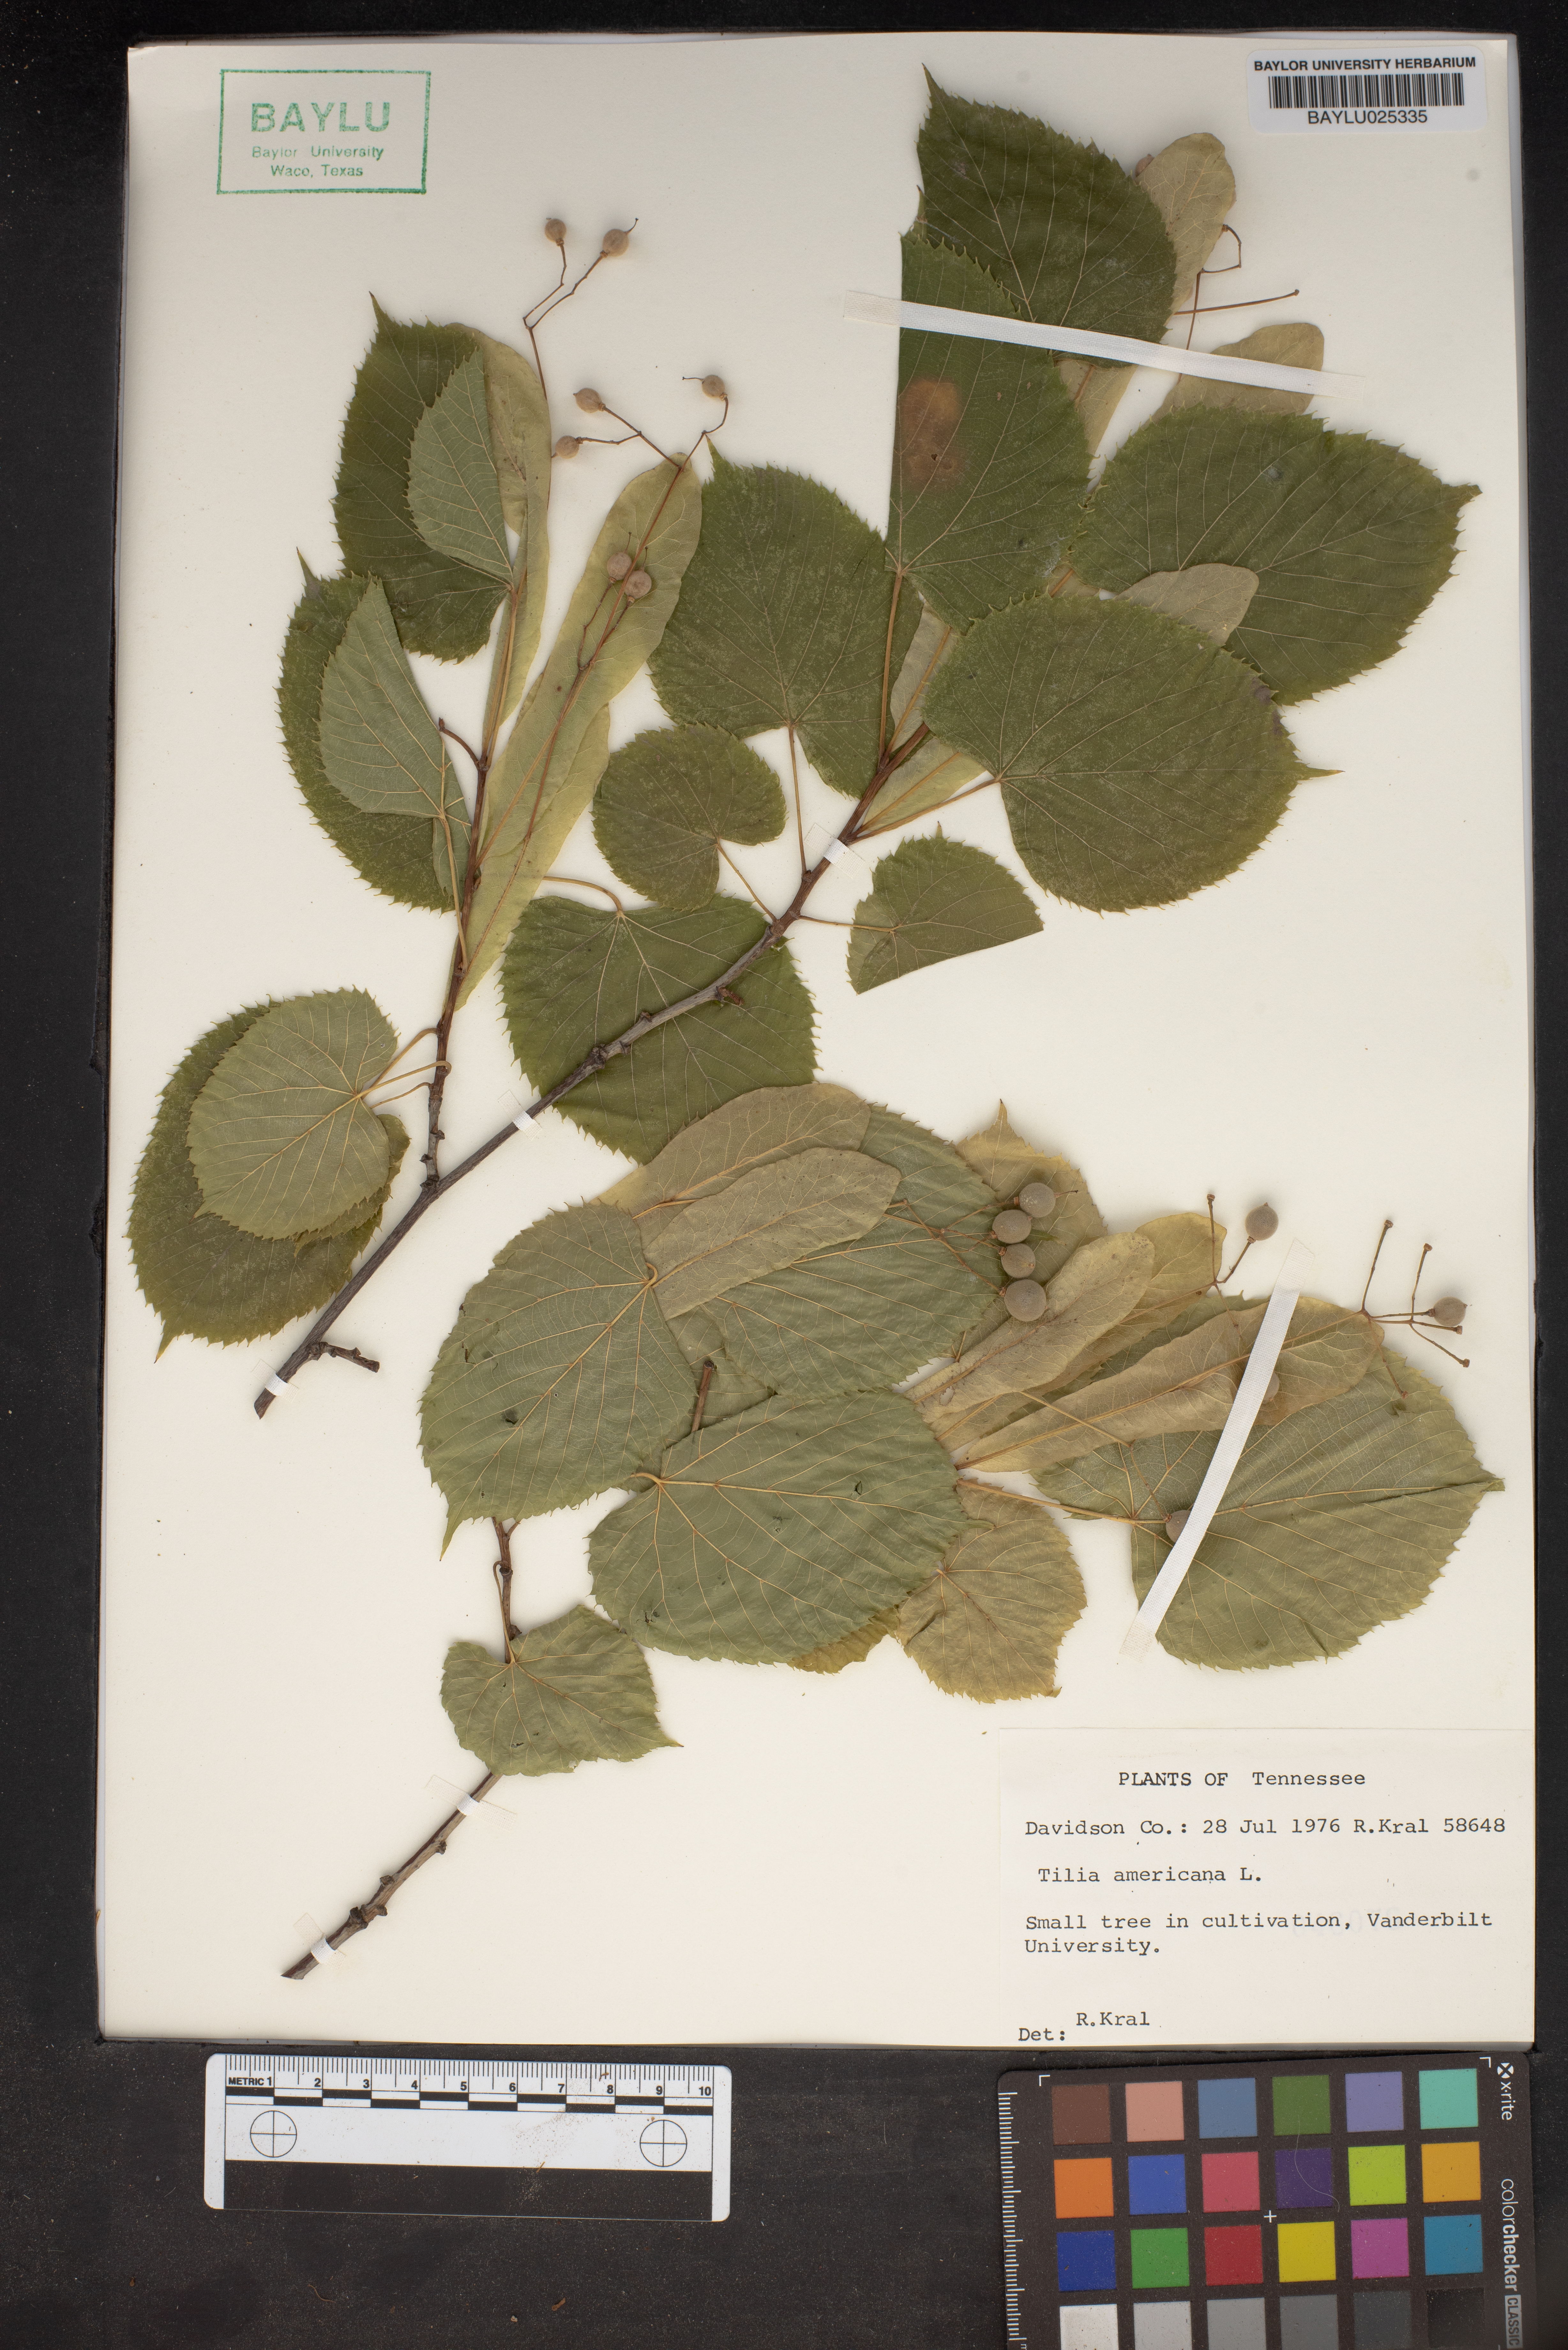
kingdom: Plantae
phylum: Tracheophyta
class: Magnoliopsida
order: Malvales
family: Malvaceae
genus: Tilia
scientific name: Tilia americana
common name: Basswood
